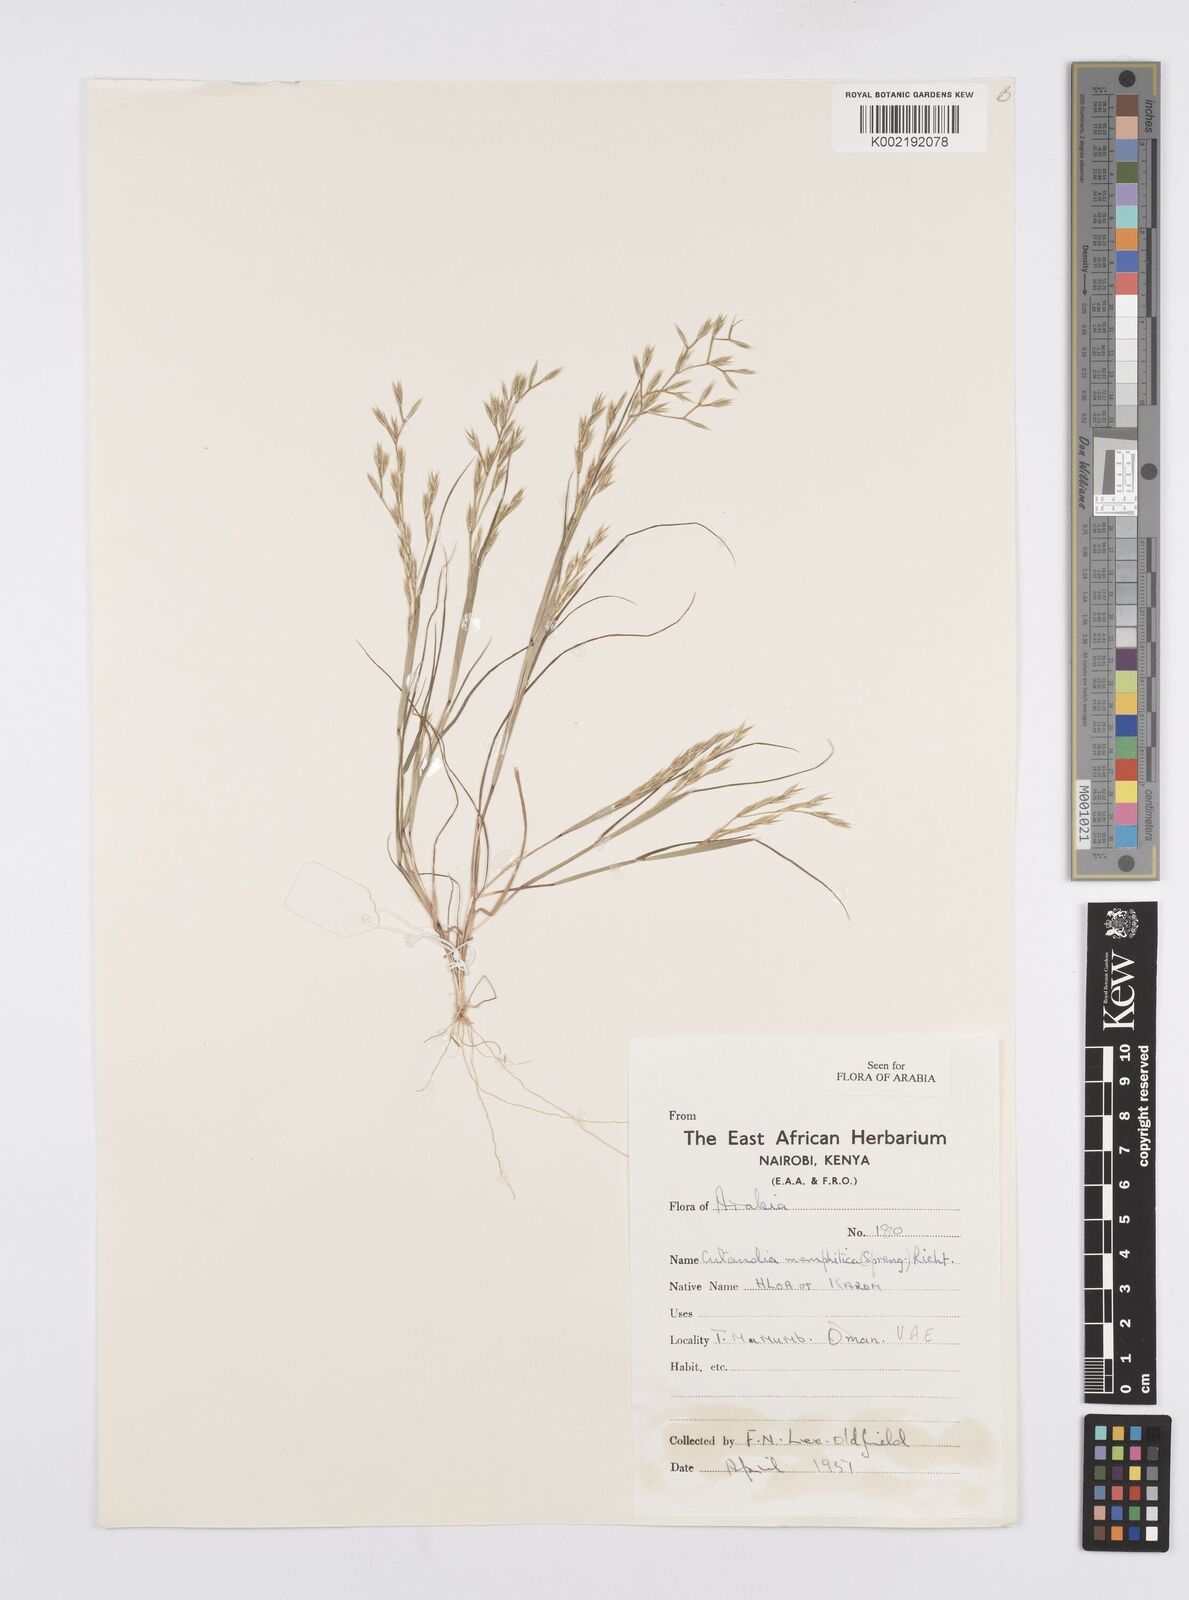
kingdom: Plantae
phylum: Tracheophyta
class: Liliopsida
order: Poales
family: Poaceae
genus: Cutandia
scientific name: Cutandia memphitica
